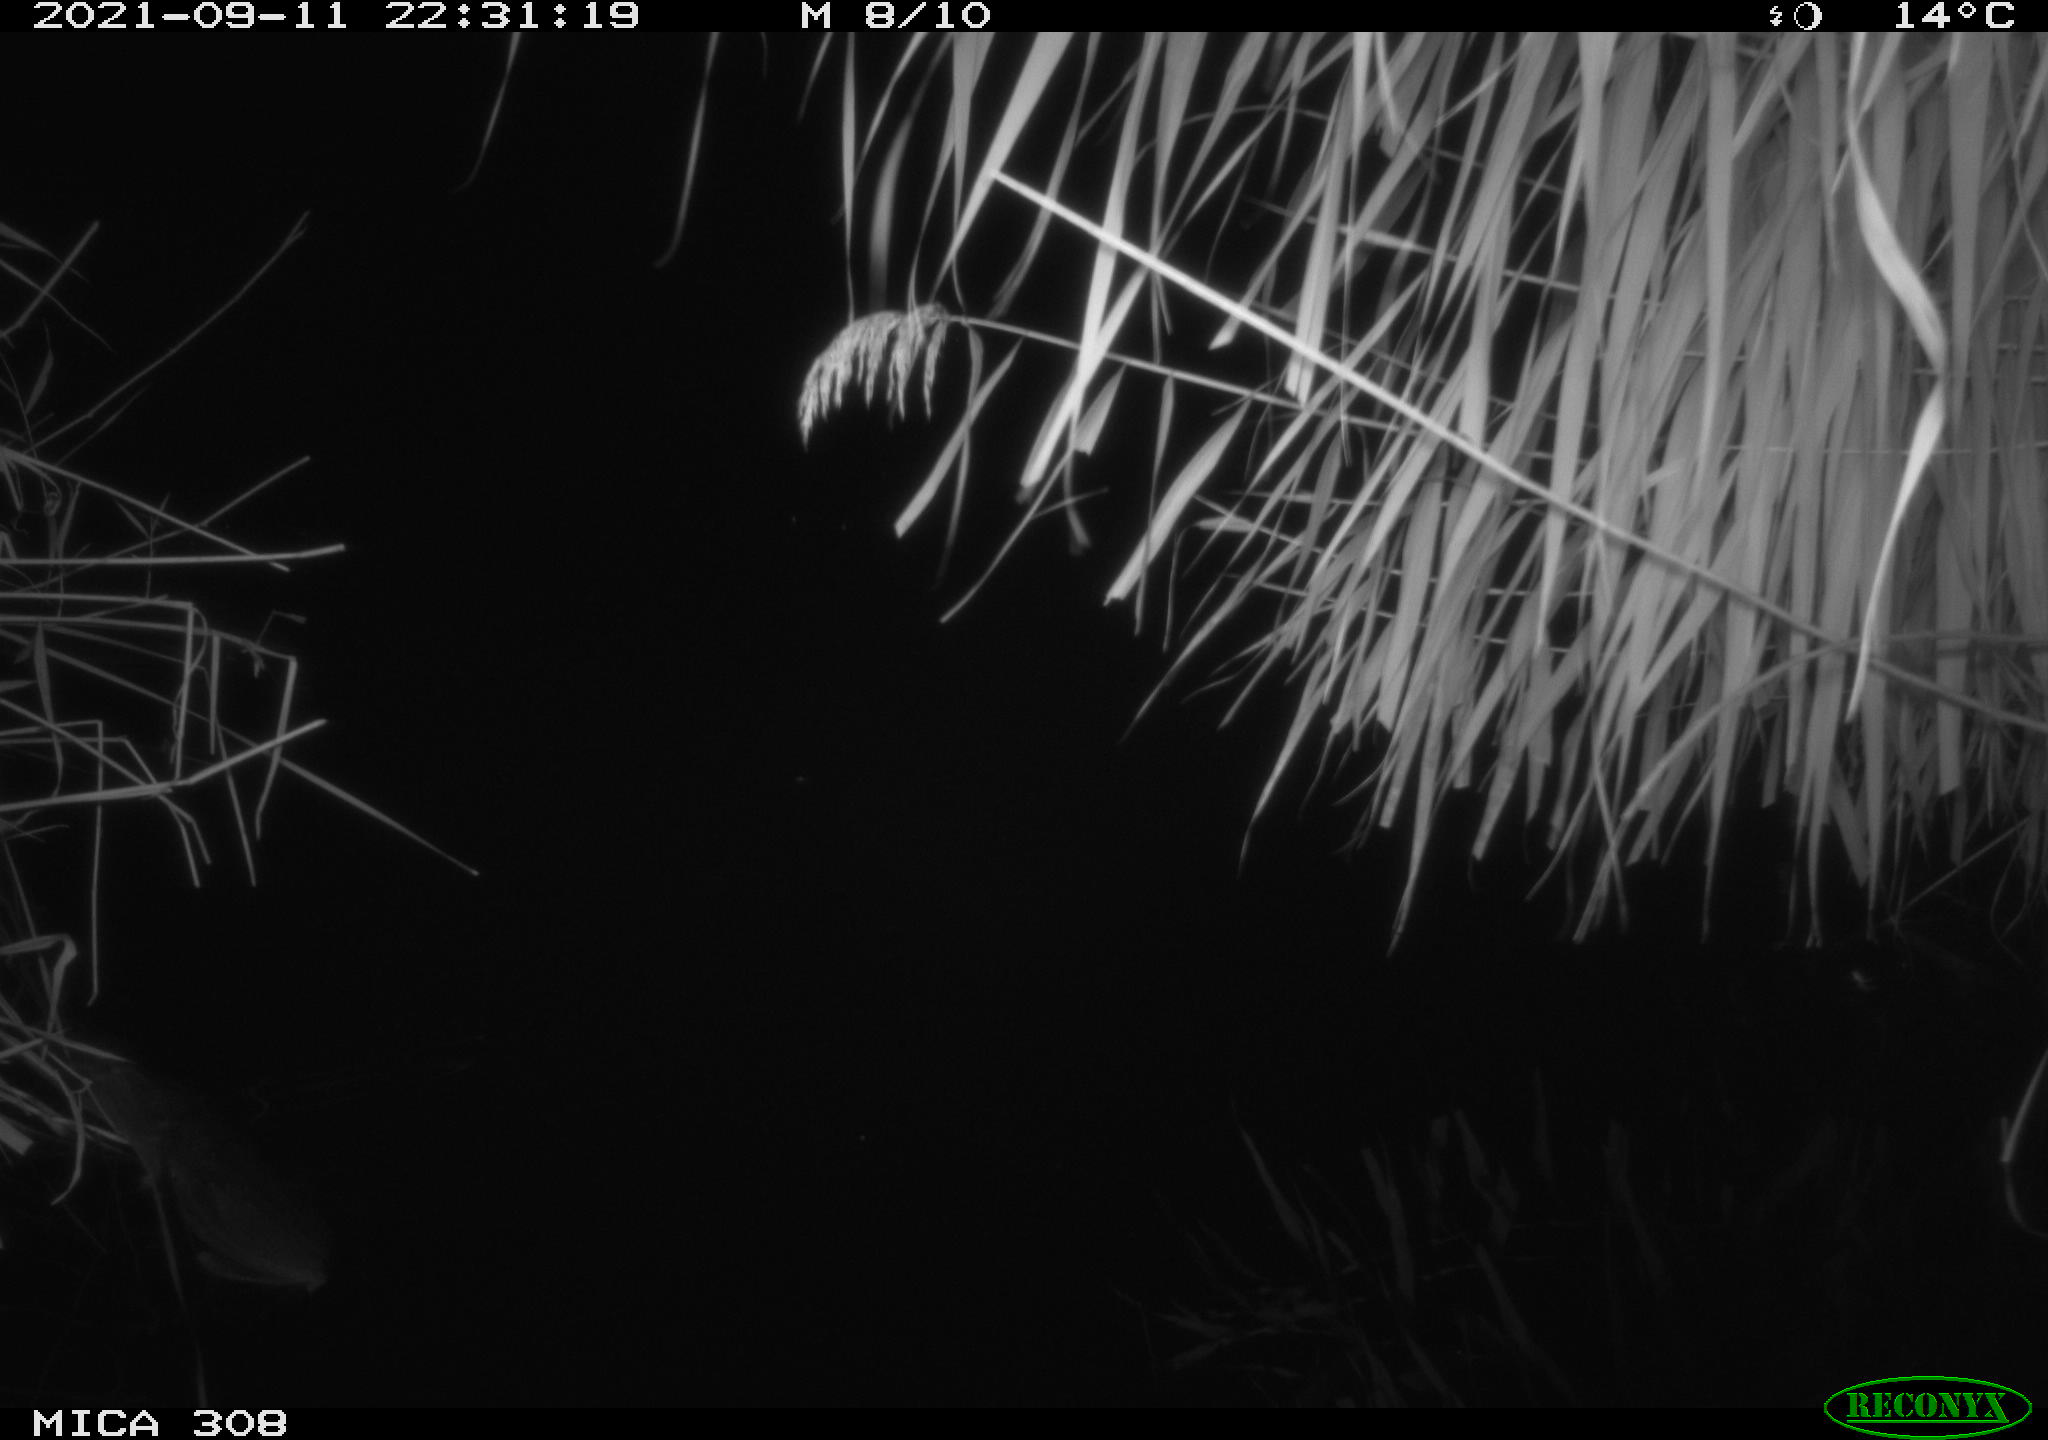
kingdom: Animalia
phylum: Chordata
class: Mammalia
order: Rodentia
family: Muridae
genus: Rattus
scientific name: Rattus norvegicus
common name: Brown rat
